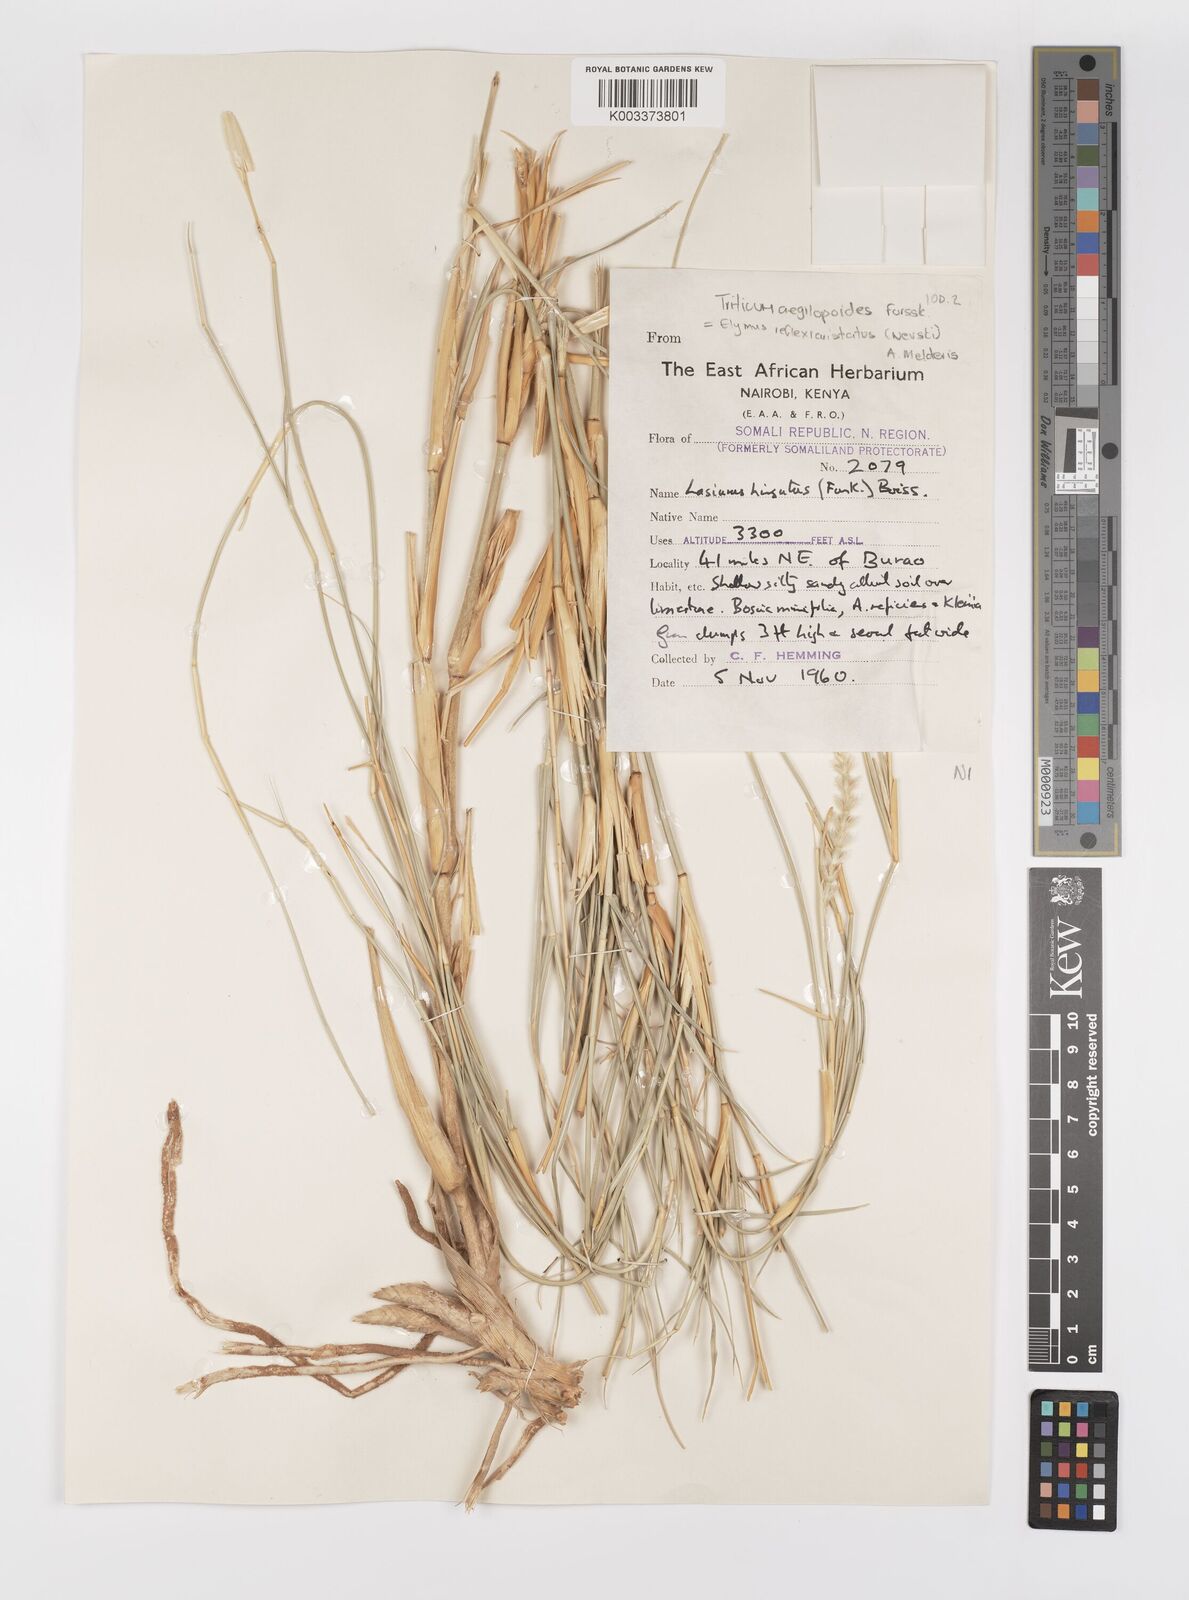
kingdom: Plantae
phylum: Tracheophyta
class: Liliopsida
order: Poales
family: Poaceae
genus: Pseudoroegneria
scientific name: Pseudoroegneria reflexiaristata
